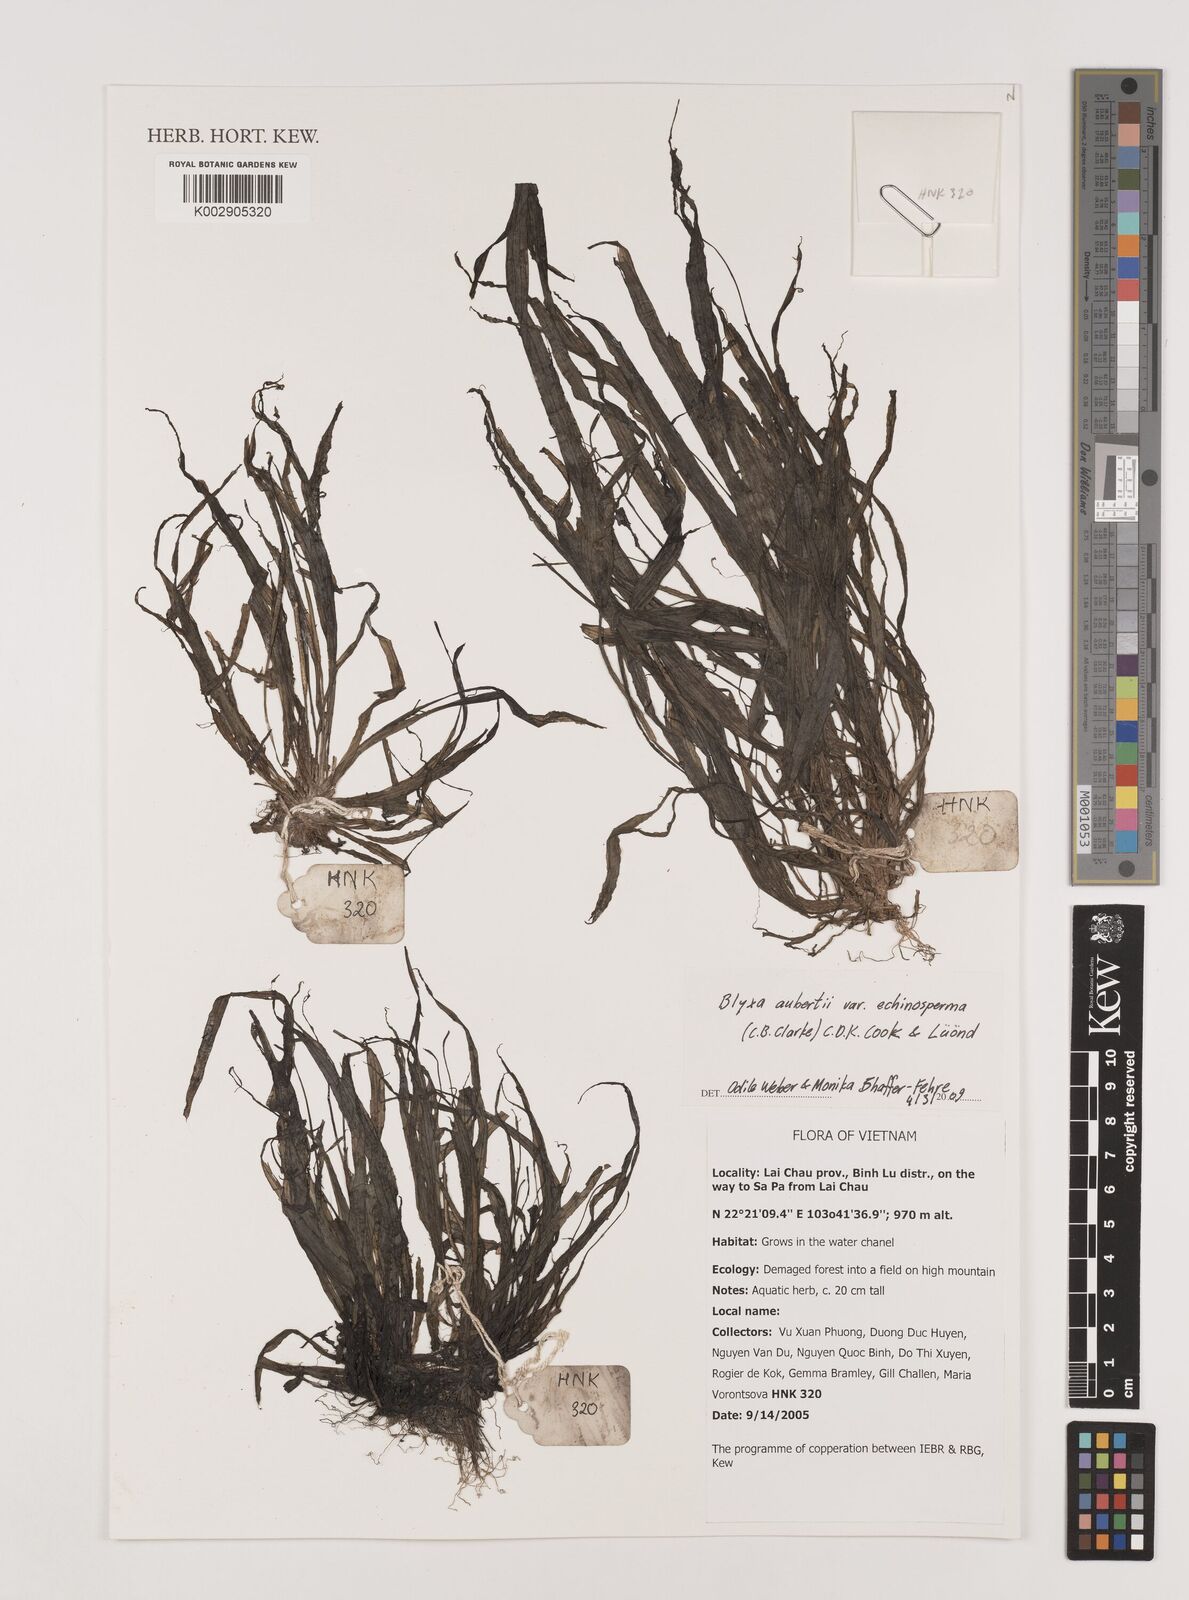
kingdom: Plantae
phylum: Tracheophyta
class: Liliopsida
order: Alismatales
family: Hydrocharitaceae
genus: Blyxa
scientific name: Blyxa echinosperma
